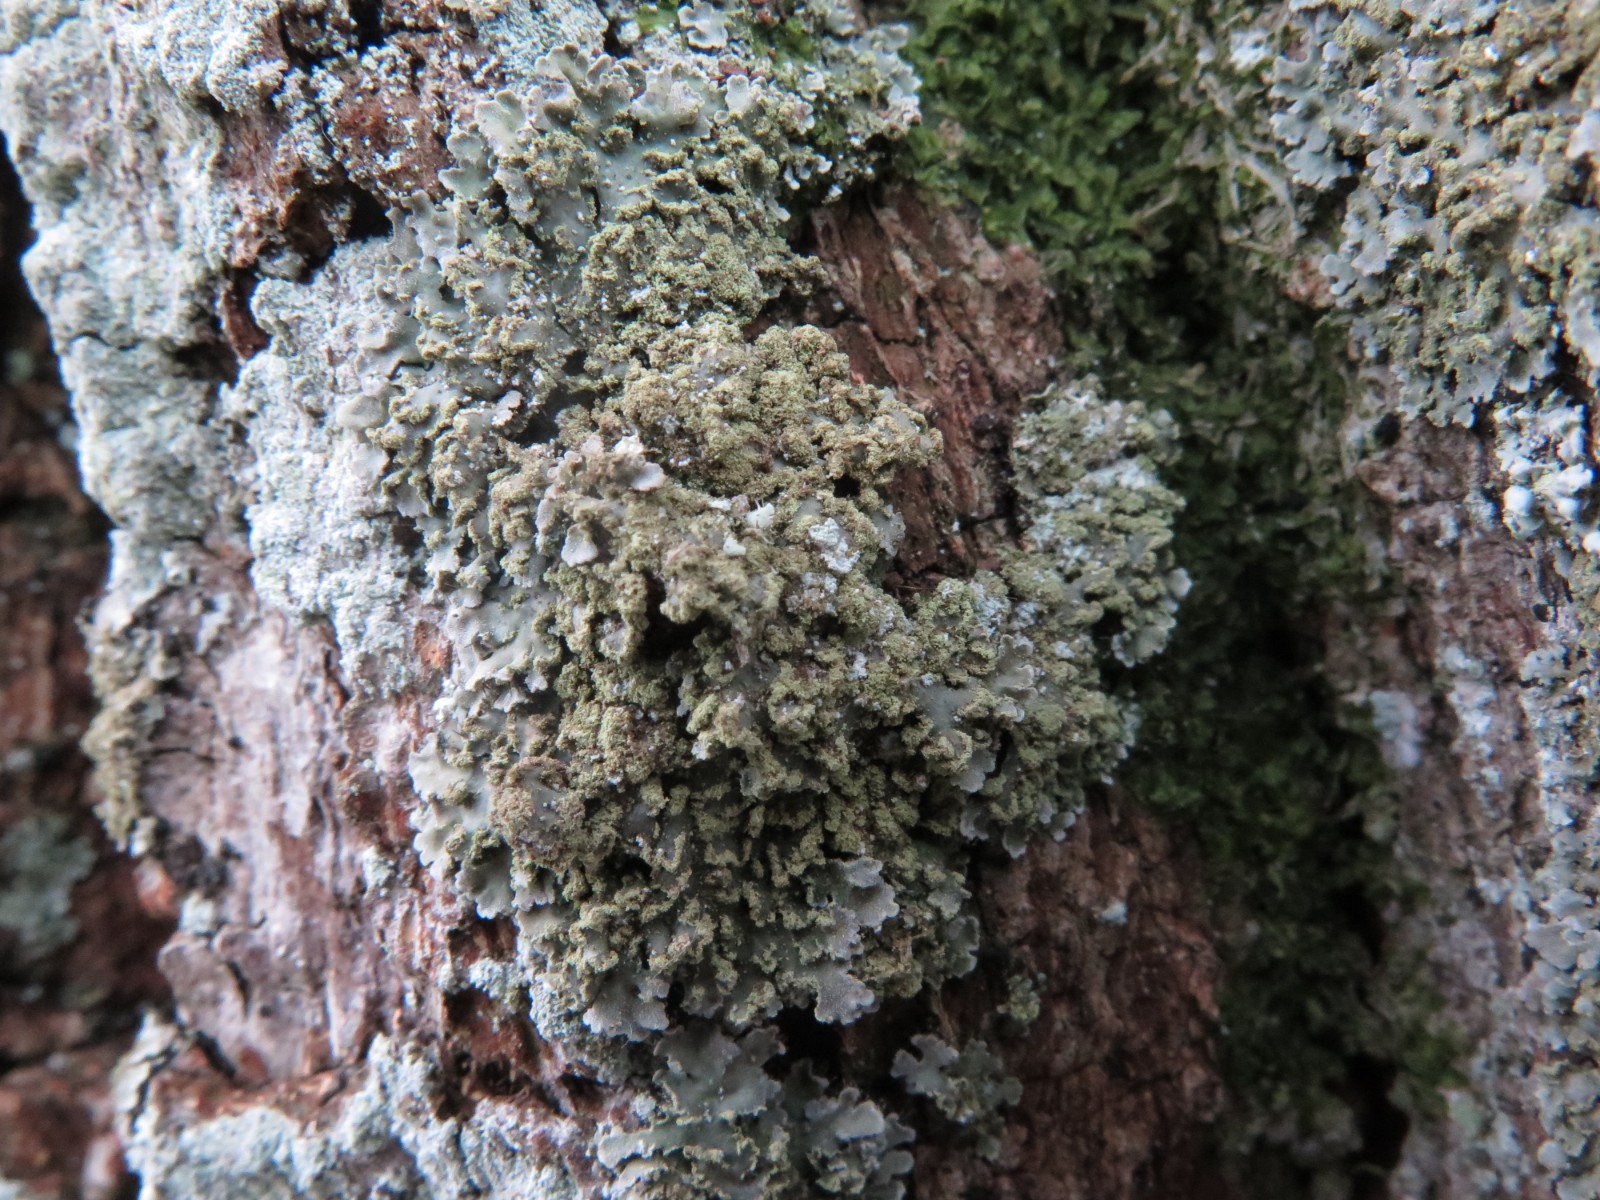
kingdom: Fungi
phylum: Ascomycota
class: Lecanoromycetes
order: Caliciales
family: Physciaceae
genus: Physconia
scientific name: Physconia perisidiosa
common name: liden dugrosetlav
